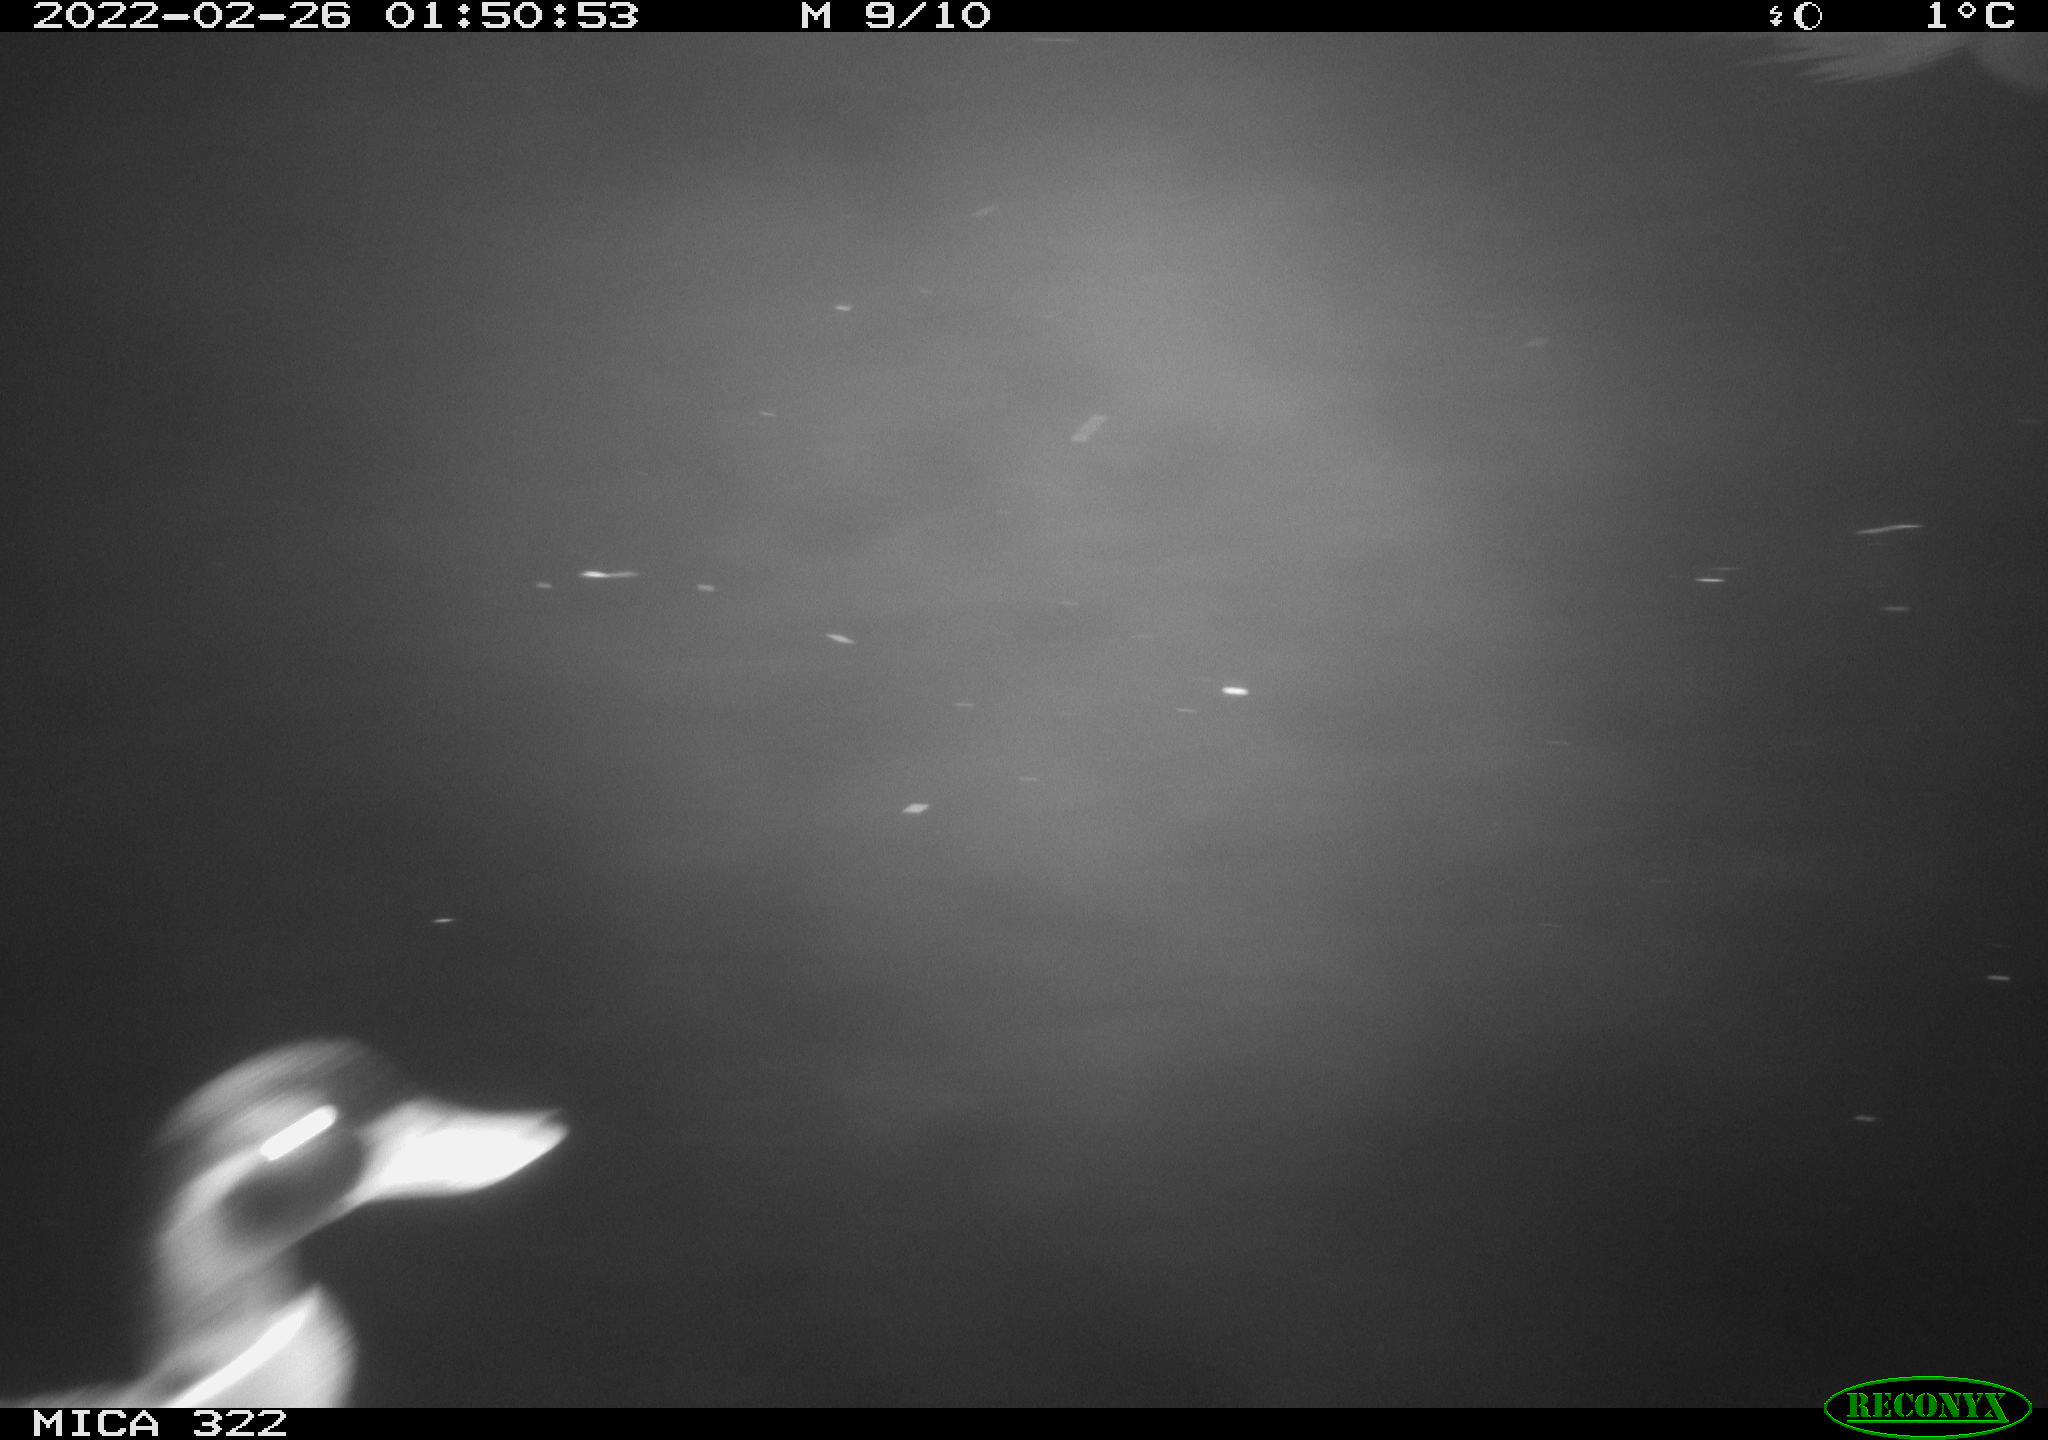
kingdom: Animalia
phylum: Chordata
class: Aves
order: Anseriformes
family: Anatidae
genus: Mareca
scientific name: Mareca strepera
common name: Gadwall
